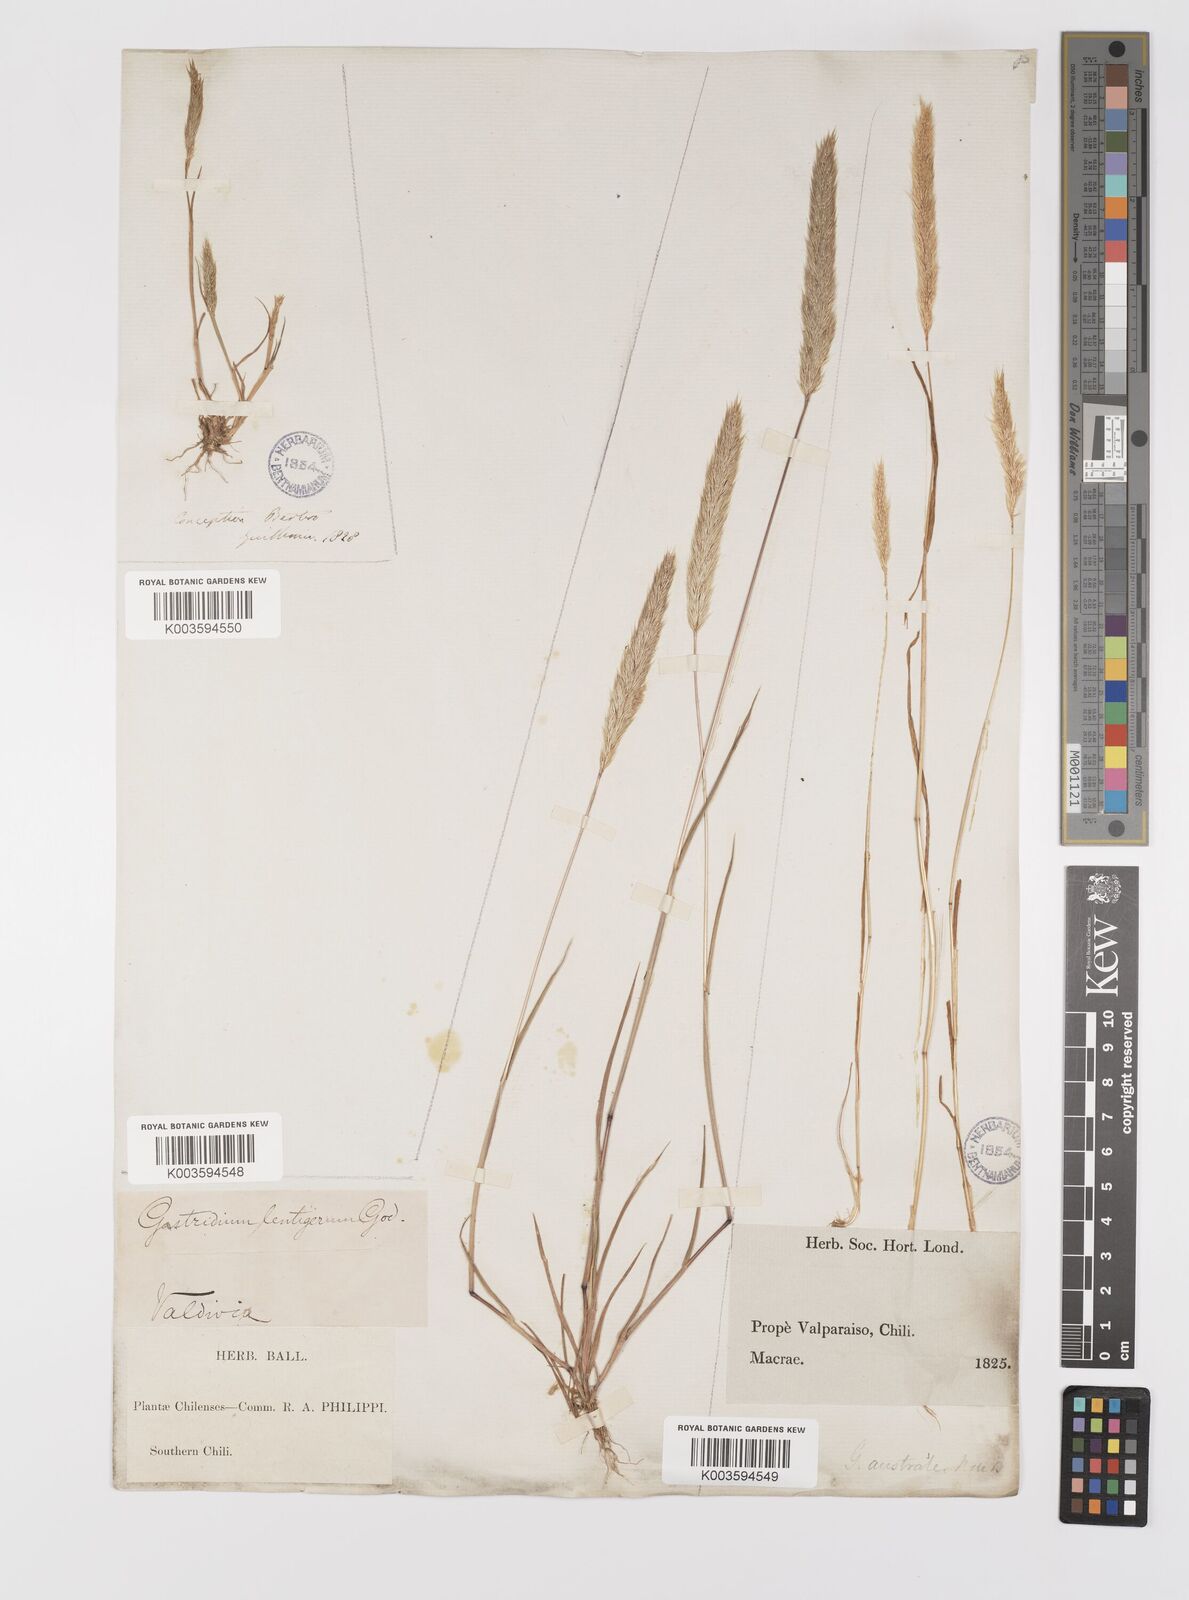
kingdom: Plantae
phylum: Tracheophyta
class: Liliopsida
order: Poales
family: Poaceae
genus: Gastridium
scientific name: Gastridium phleoides
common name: Nit grass
